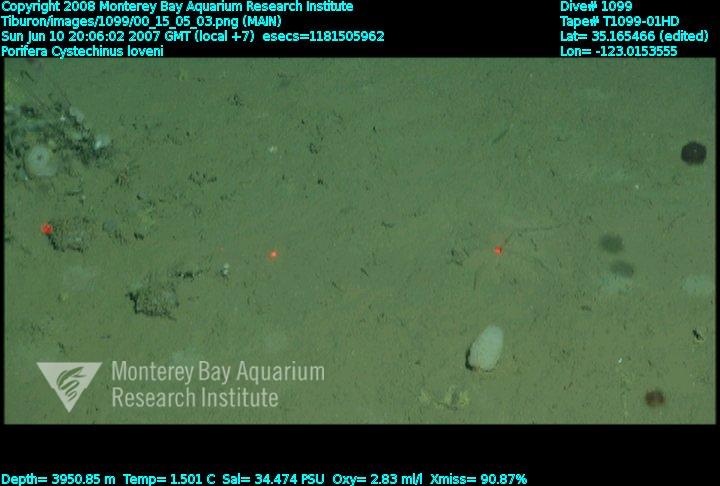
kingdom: Animalia
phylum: Porifera
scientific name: Porifera
